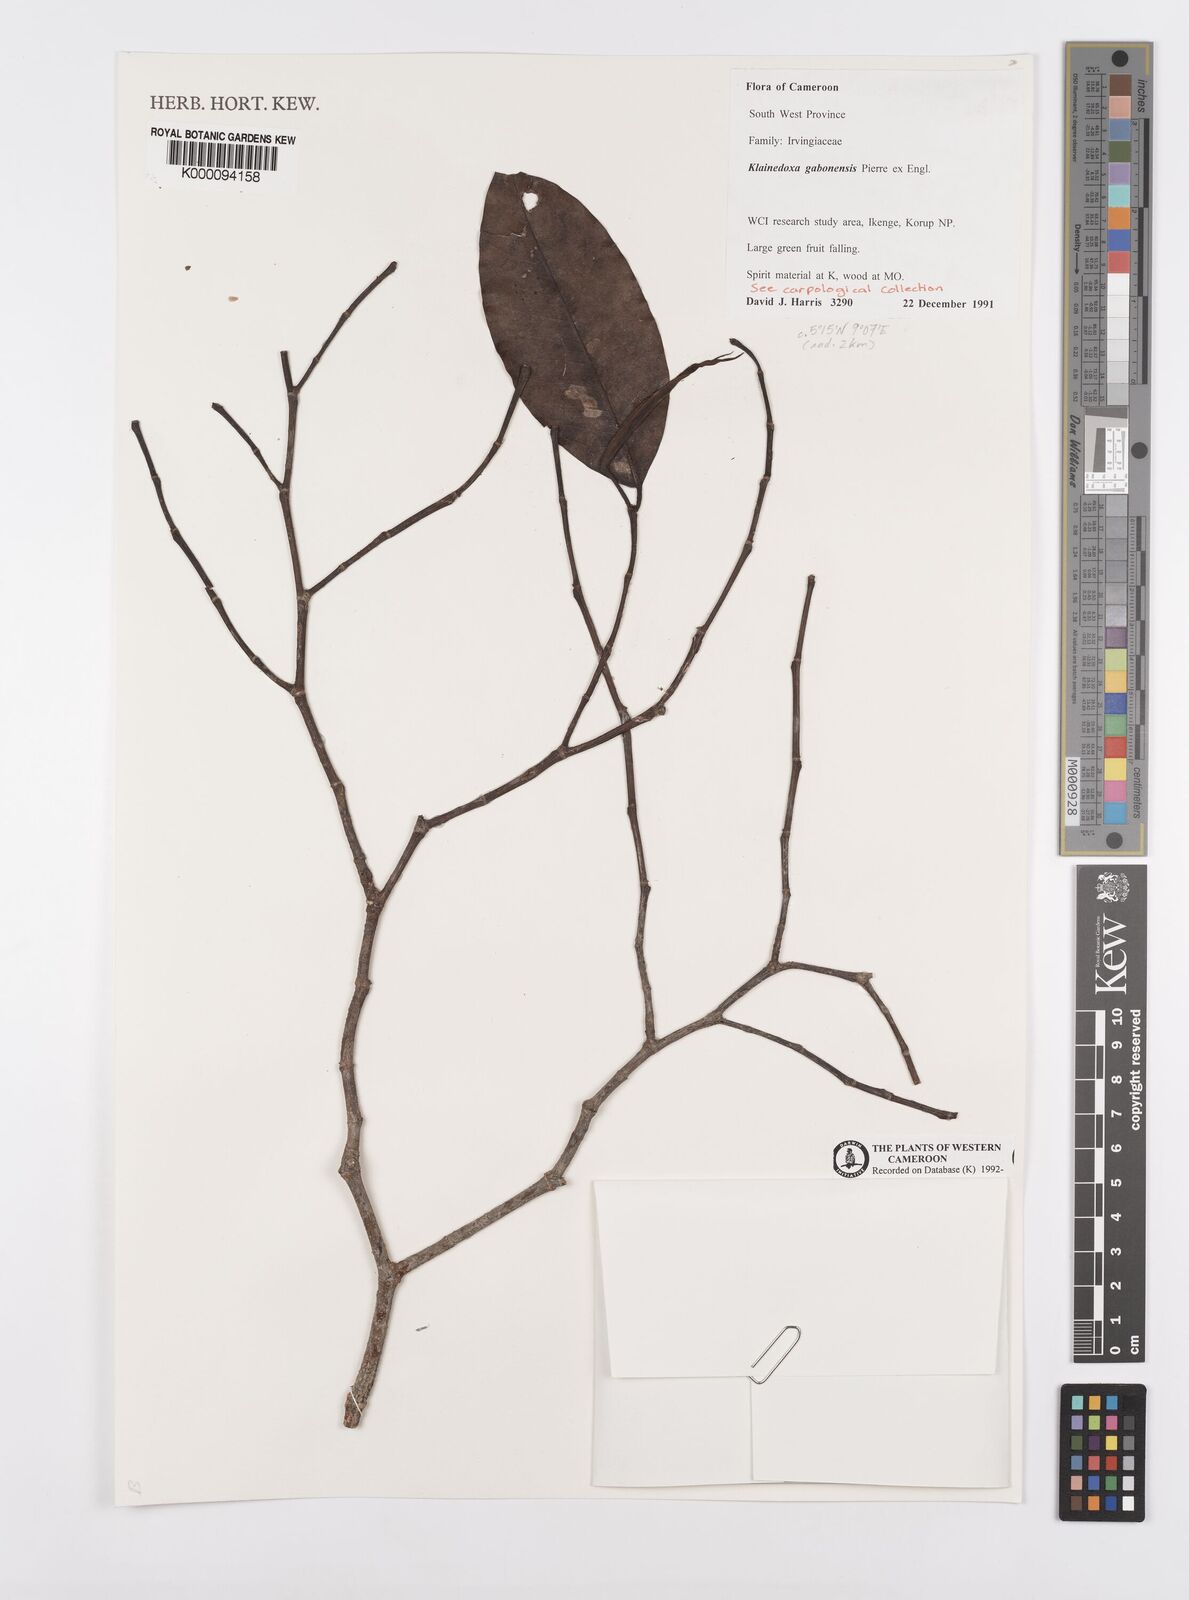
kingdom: Plantae
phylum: Tracheophyta
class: Magnoliopsida
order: Malpighiales
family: Irvingiaceae
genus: Klainedoxa
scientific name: Klainedoxa gabonensis
